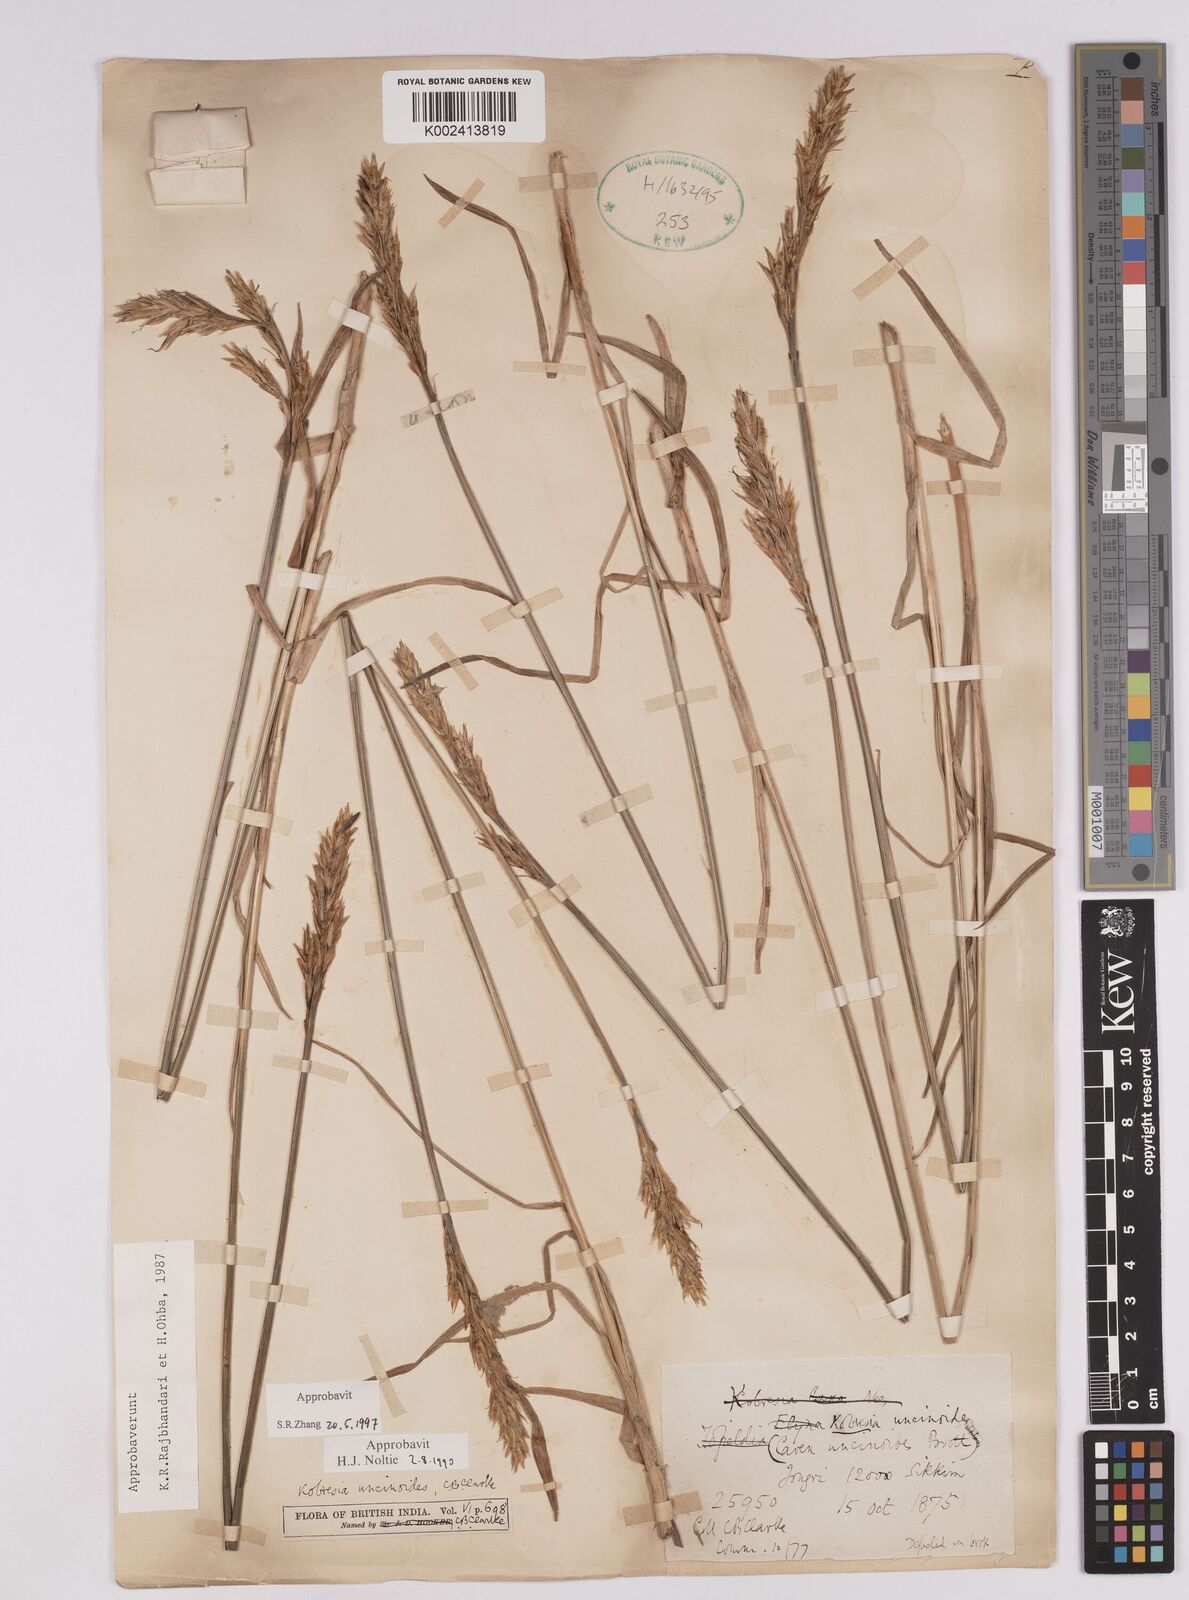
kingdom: Plantae
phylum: Tracheophyta
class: Liliopsida
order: Poales
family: Cyperaceae
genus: Carex
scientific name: Carex uncinioides
